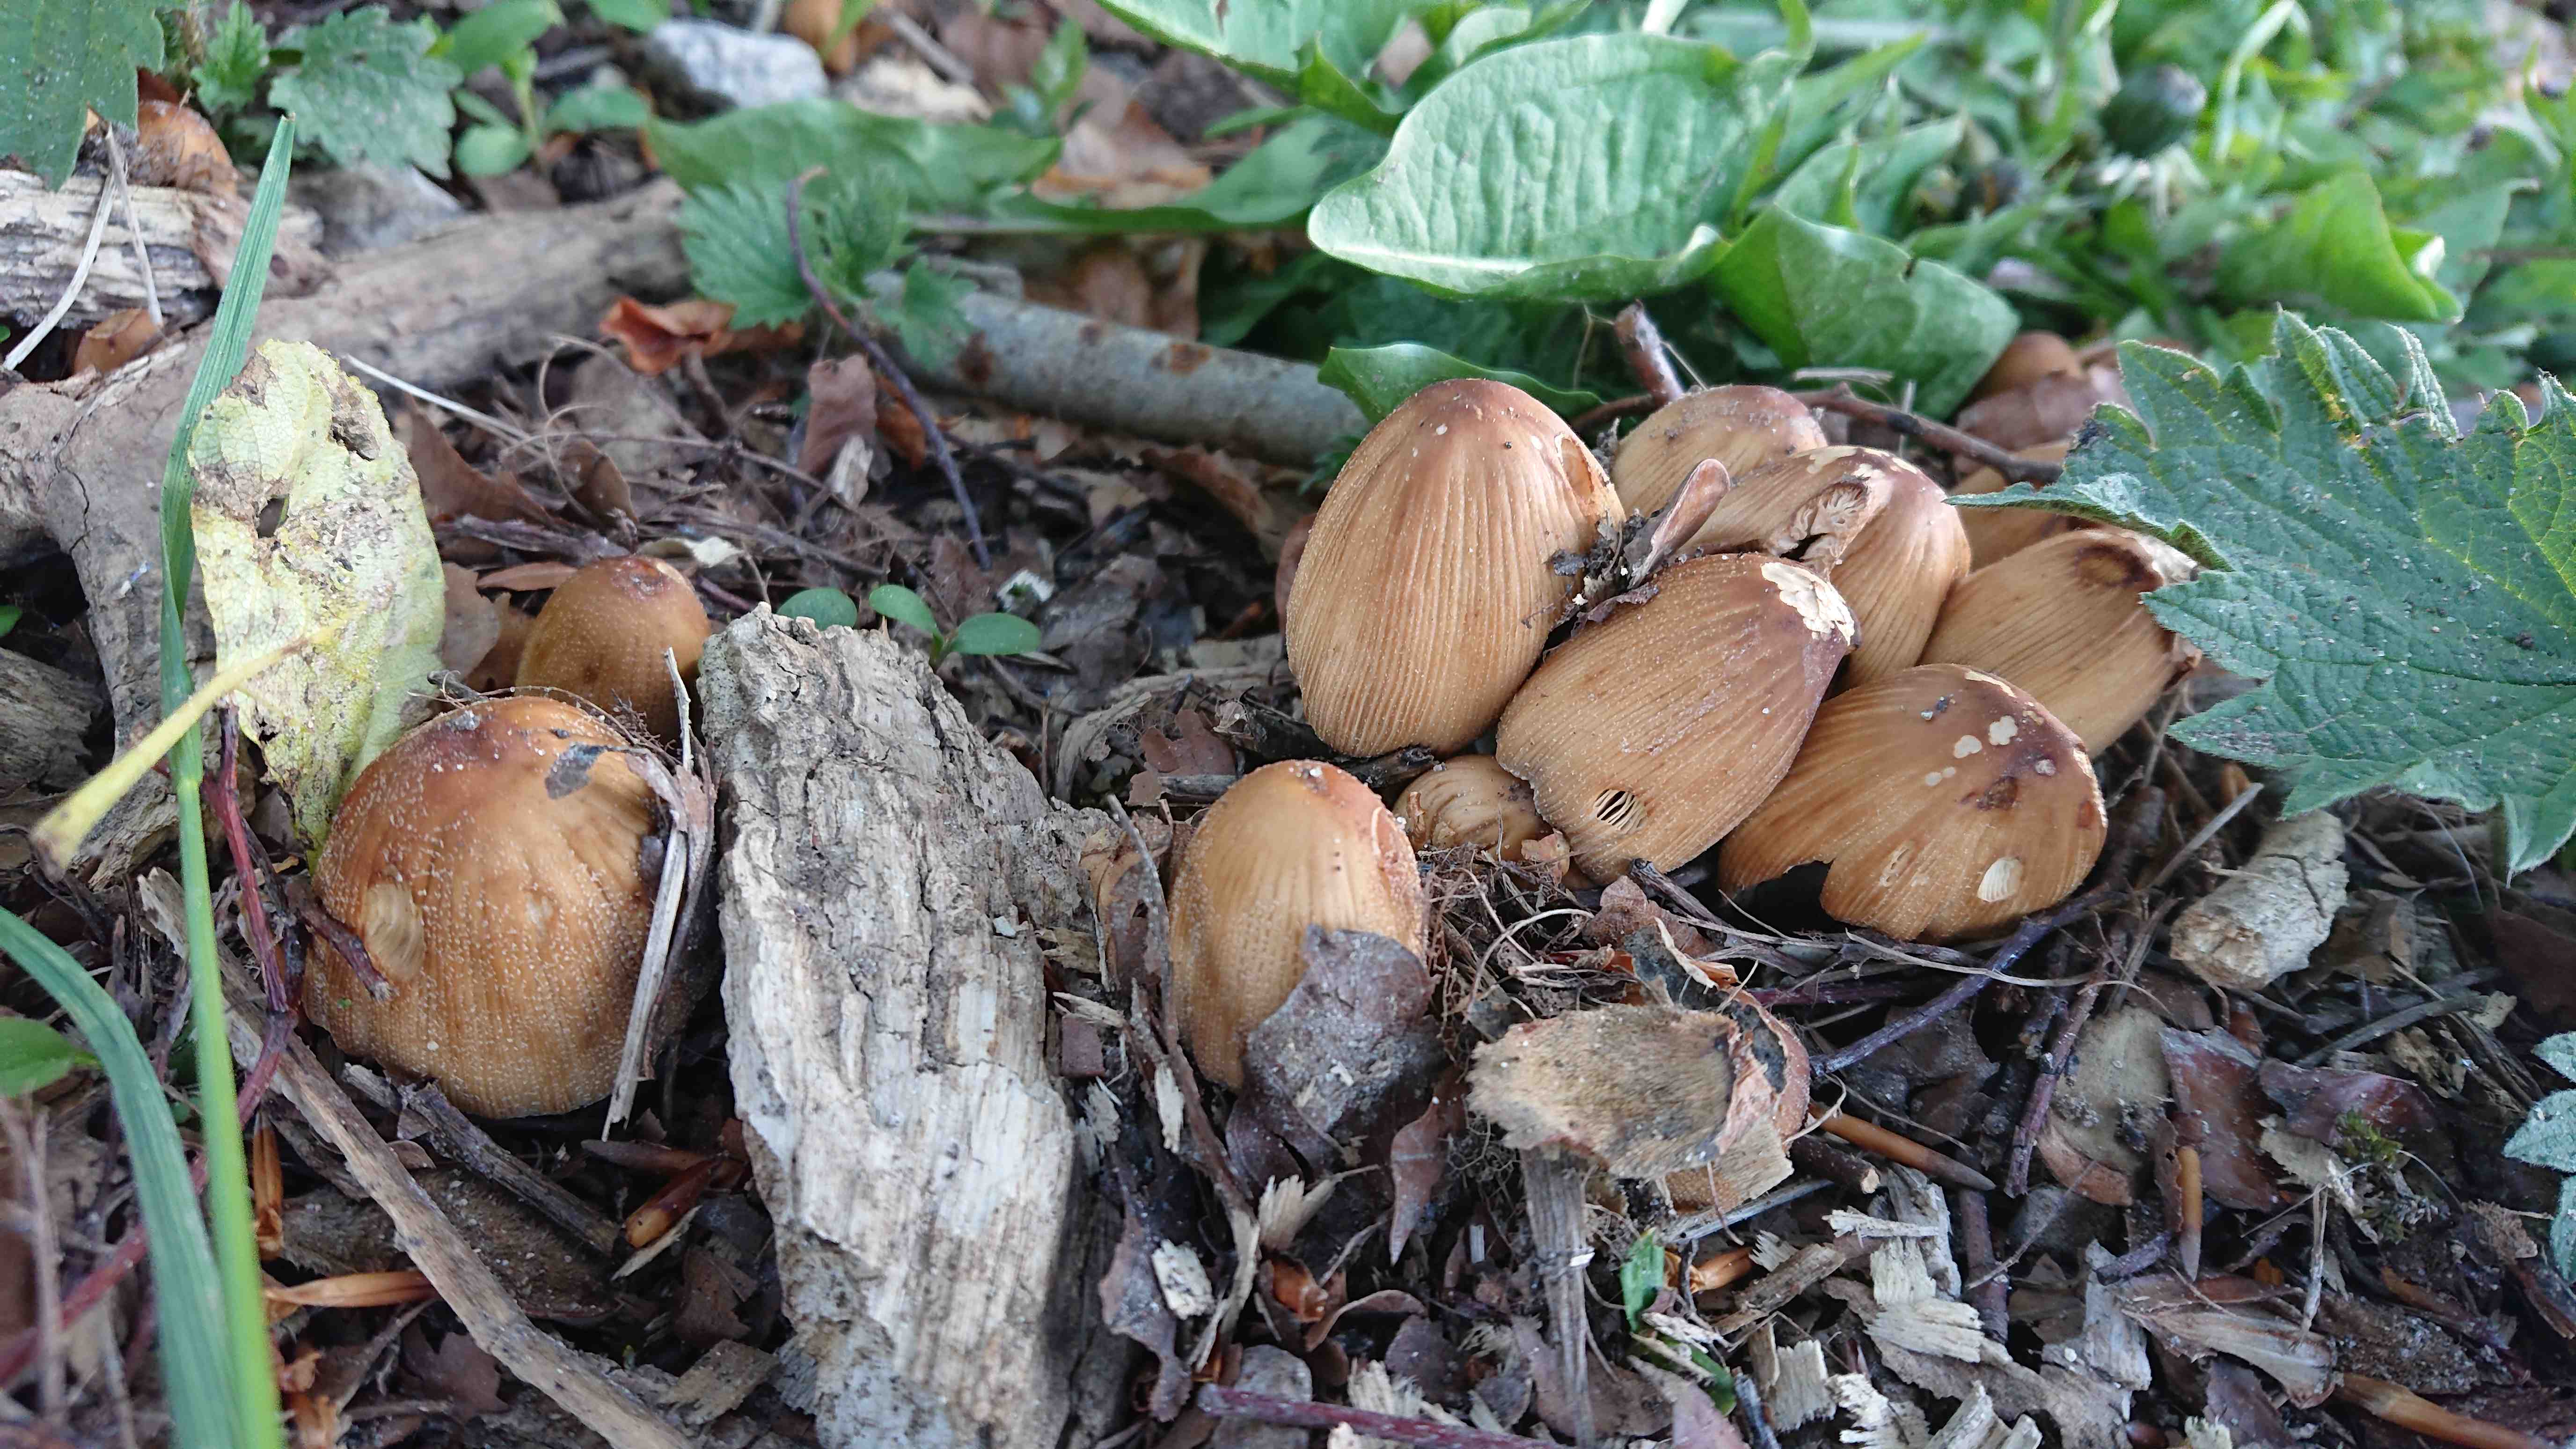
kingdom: Fungi
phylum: Basidiomycota
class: Agaricomycetes
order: Agaricales
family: Psathyrellaceae
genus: Coprinellus
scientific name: Coprinellus micaceus
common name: glimmer-blækhat
